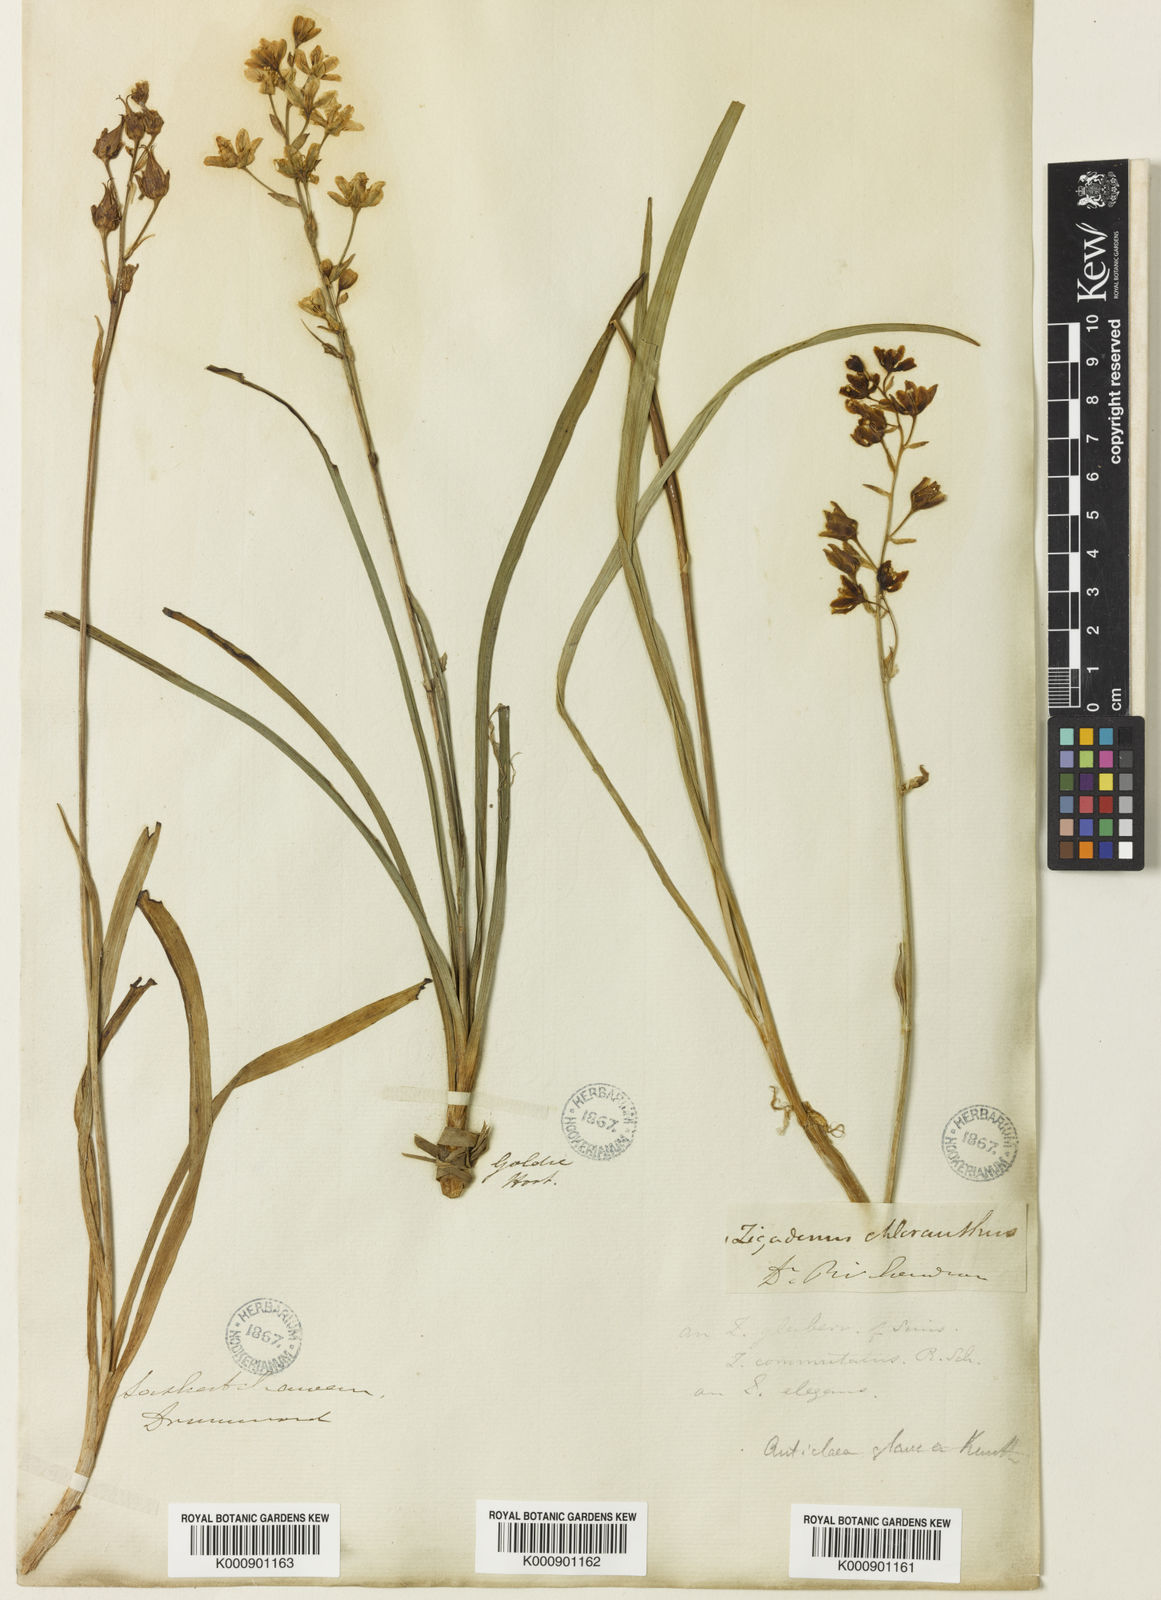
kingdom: Plantae
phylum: Tracheophyta
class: Liliopsida
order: Liliales
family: Melanthiaceae
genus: Anticlea
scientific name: Anticlea elegans
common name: Mountain death camas
